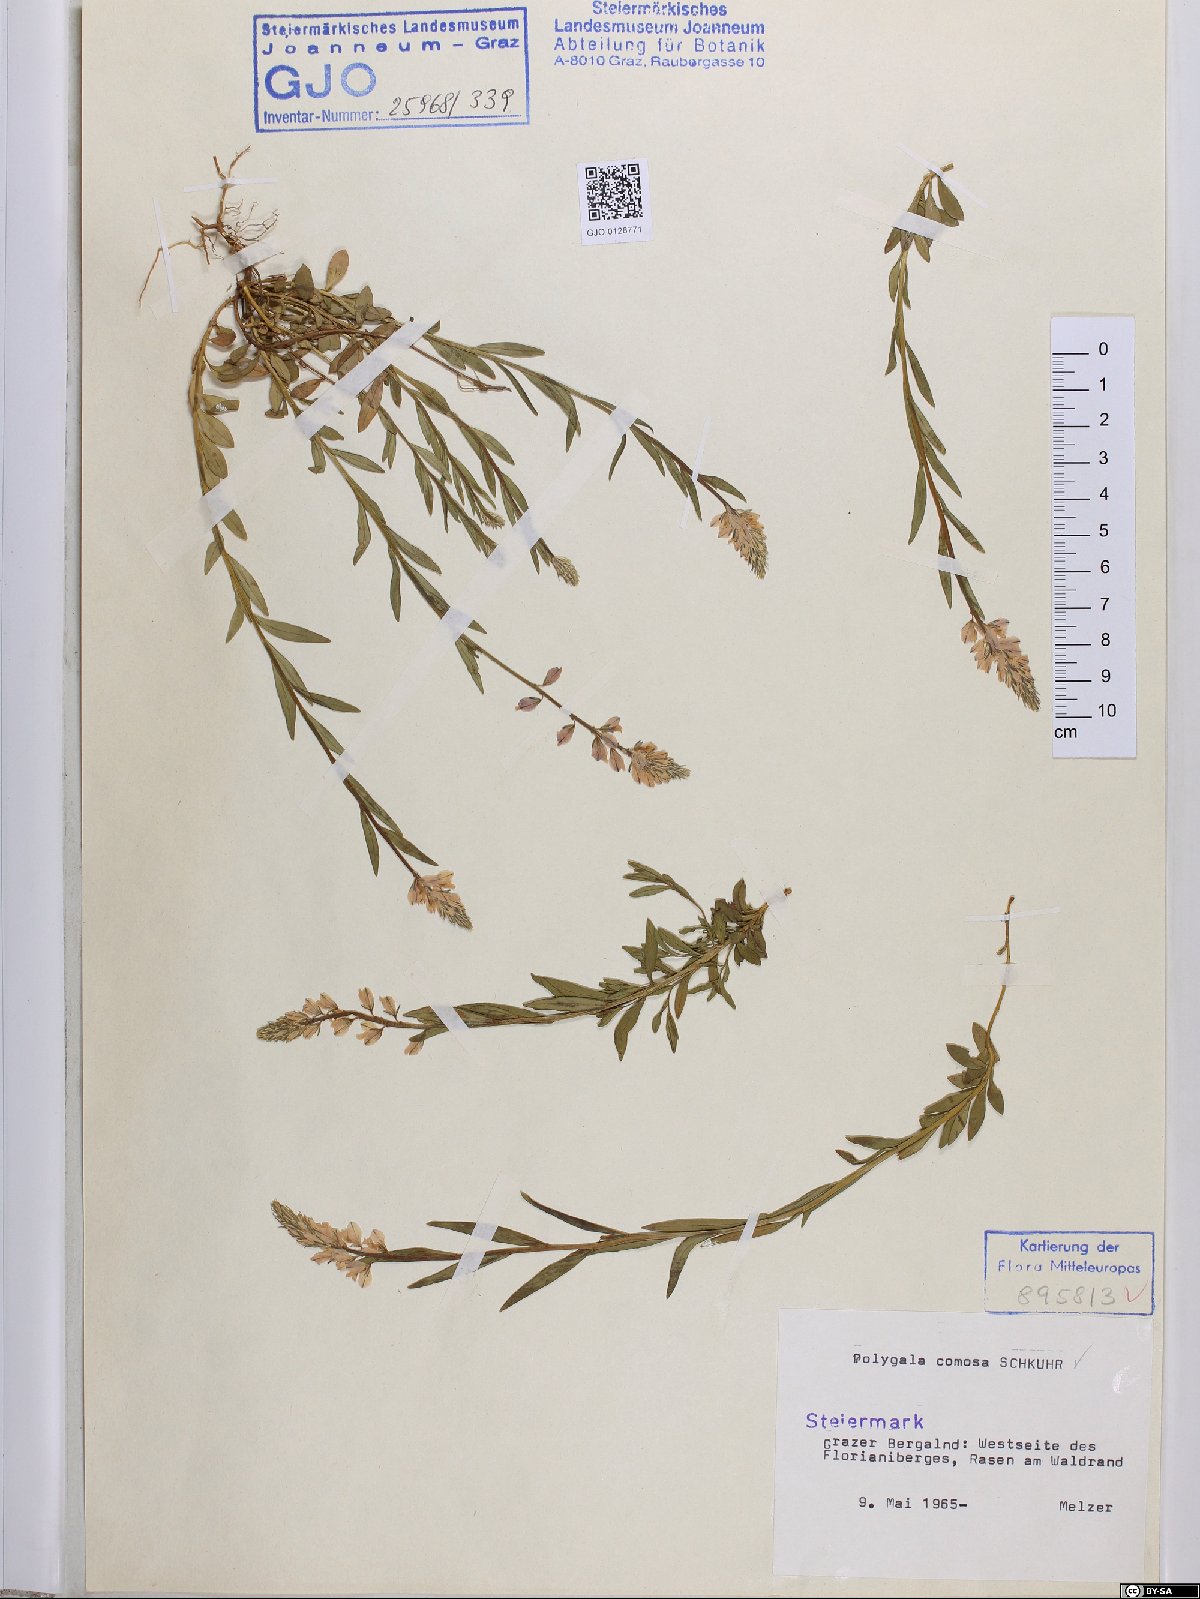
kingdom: Plantae
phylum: Tracheophyta
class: Magnoliopsida
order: Fabales
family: Polygalaceae
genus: Polygala
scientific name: Polygala comosa
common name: Tufted milkwort
